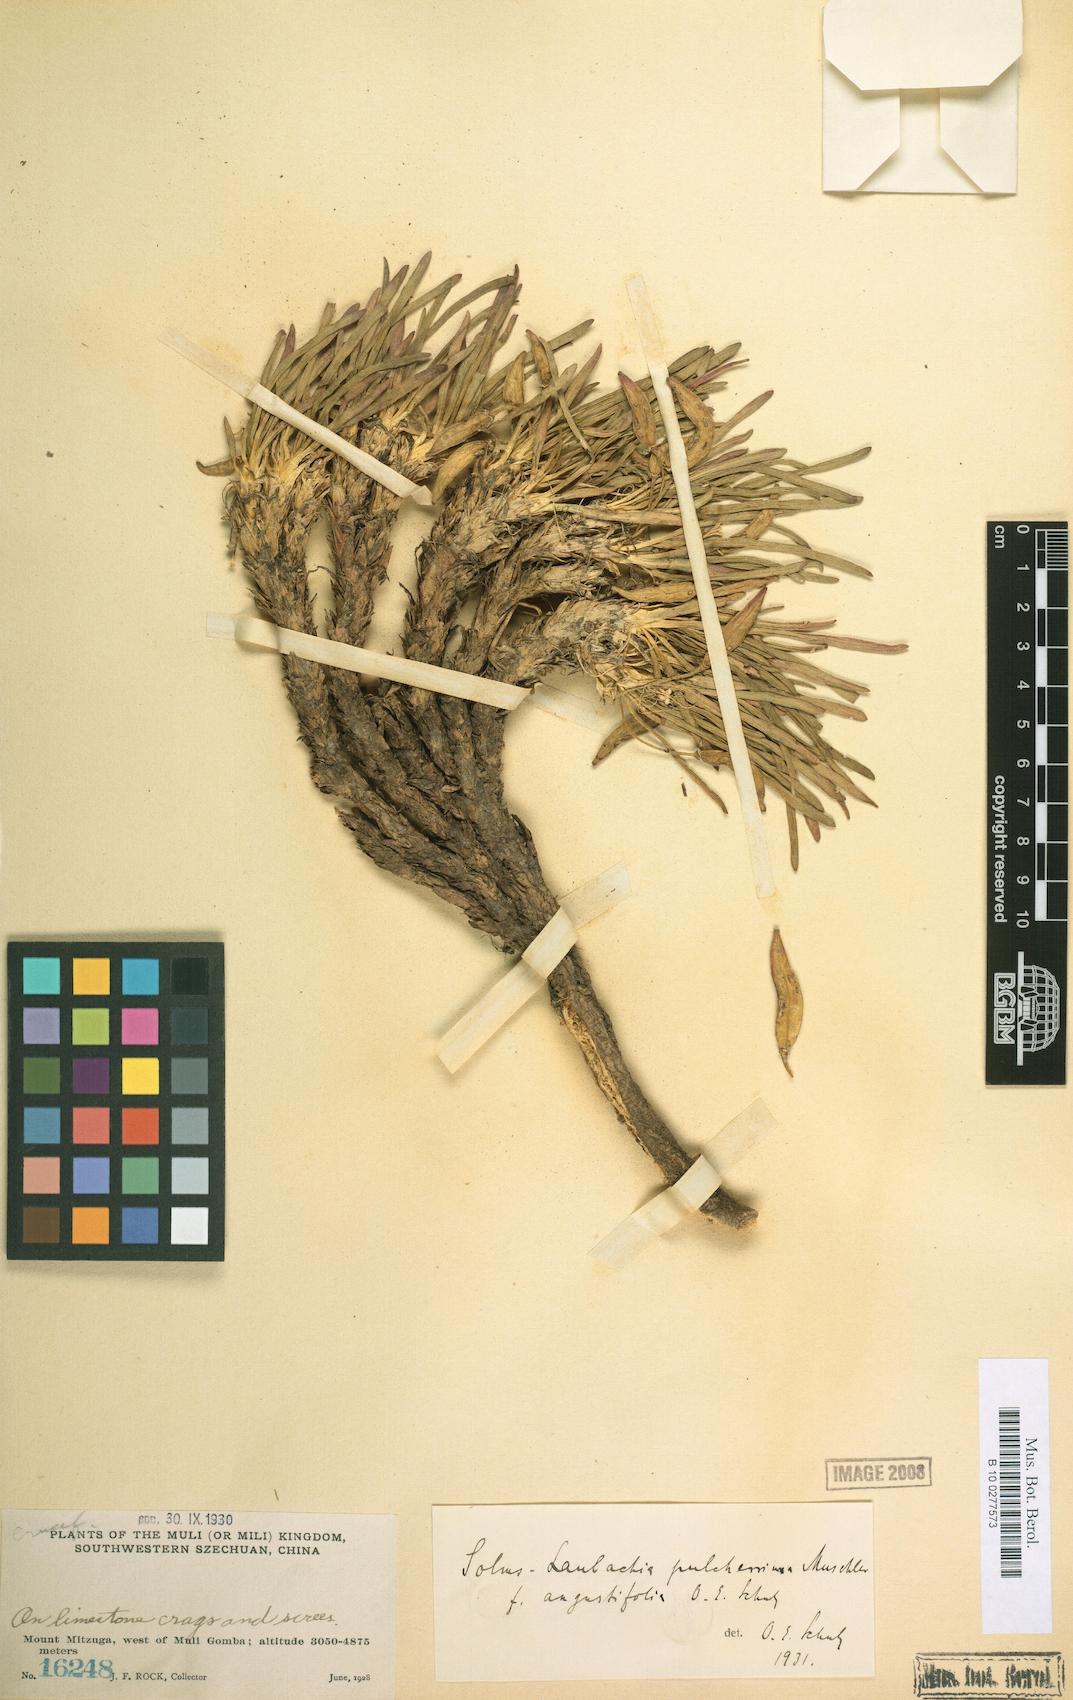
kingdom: Plantae
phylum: Tracheophyta
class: Magnoliopsida
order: Brassicales
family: Brassicaceae
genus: Solms-laubachia
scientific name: Solms-laubachia pulcherrima
